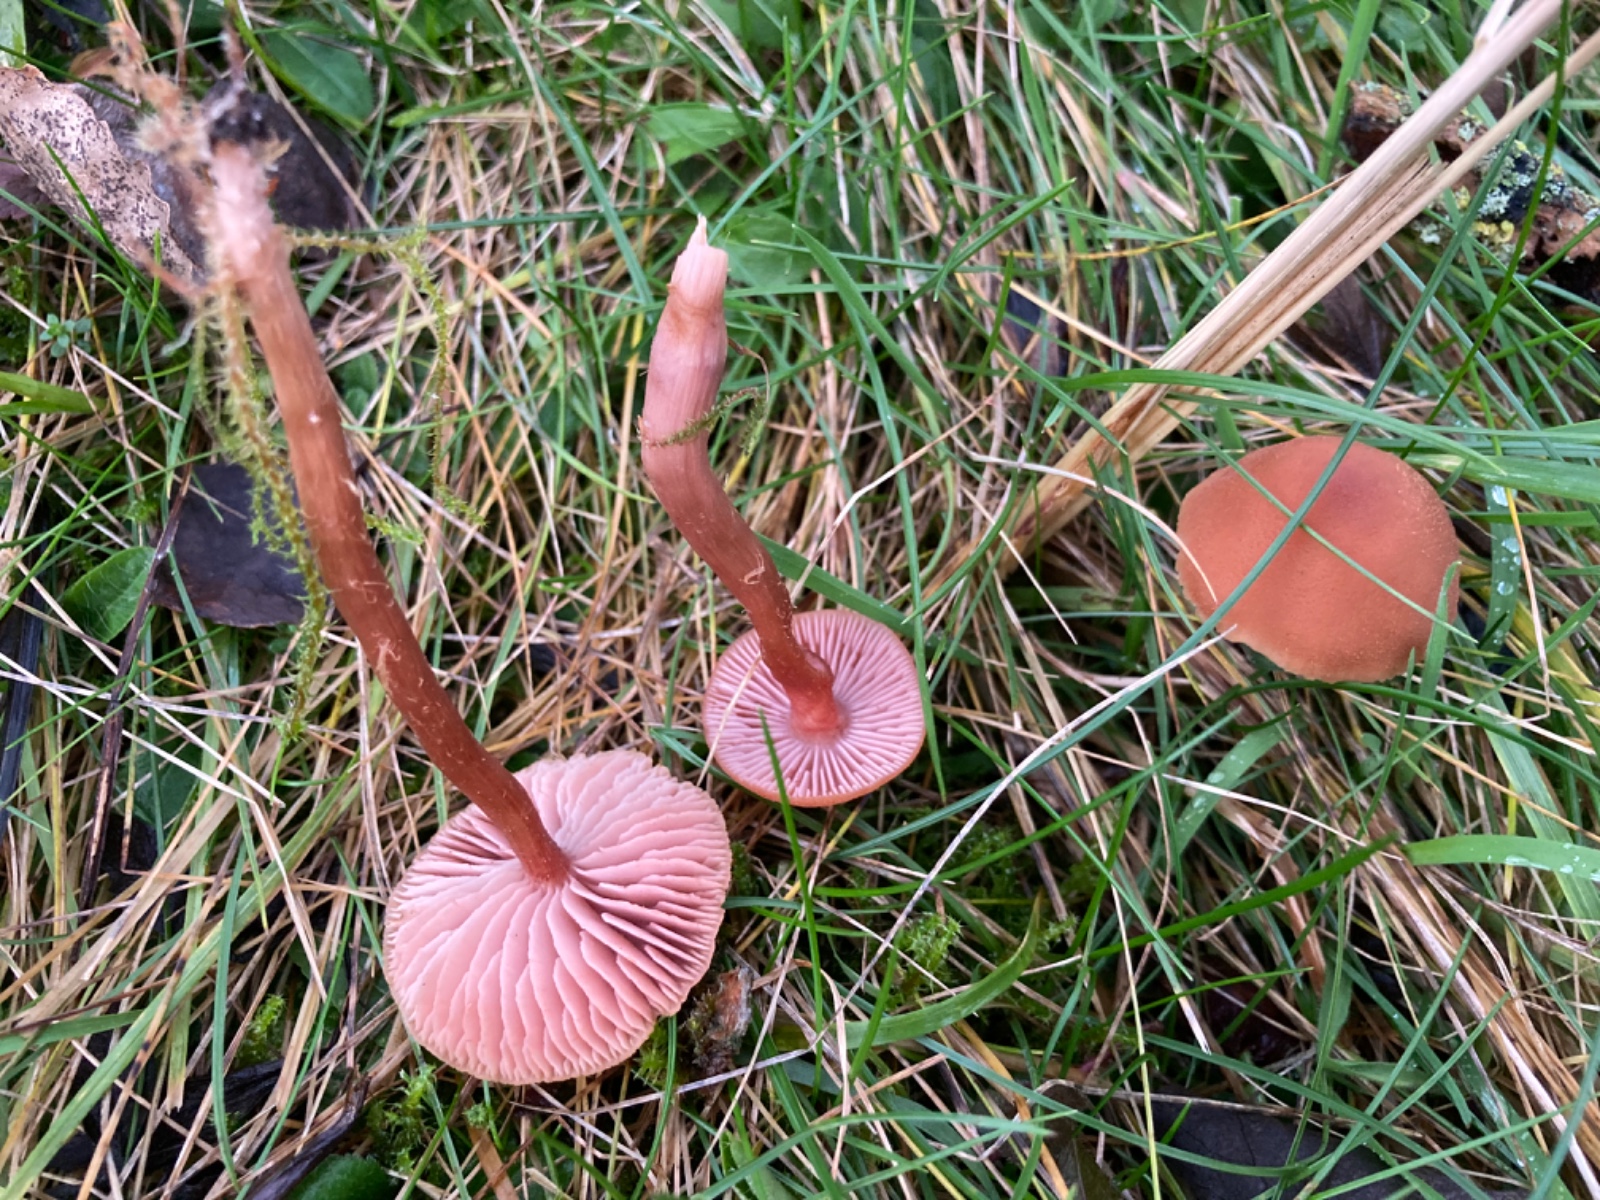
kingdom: Fungi
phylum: Basidiomycota
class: Agaricomycetes
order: Agaricales
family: Hydnangiaceae
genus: Laccaria
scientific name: Laccaria laccata
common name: rød ametysthat
